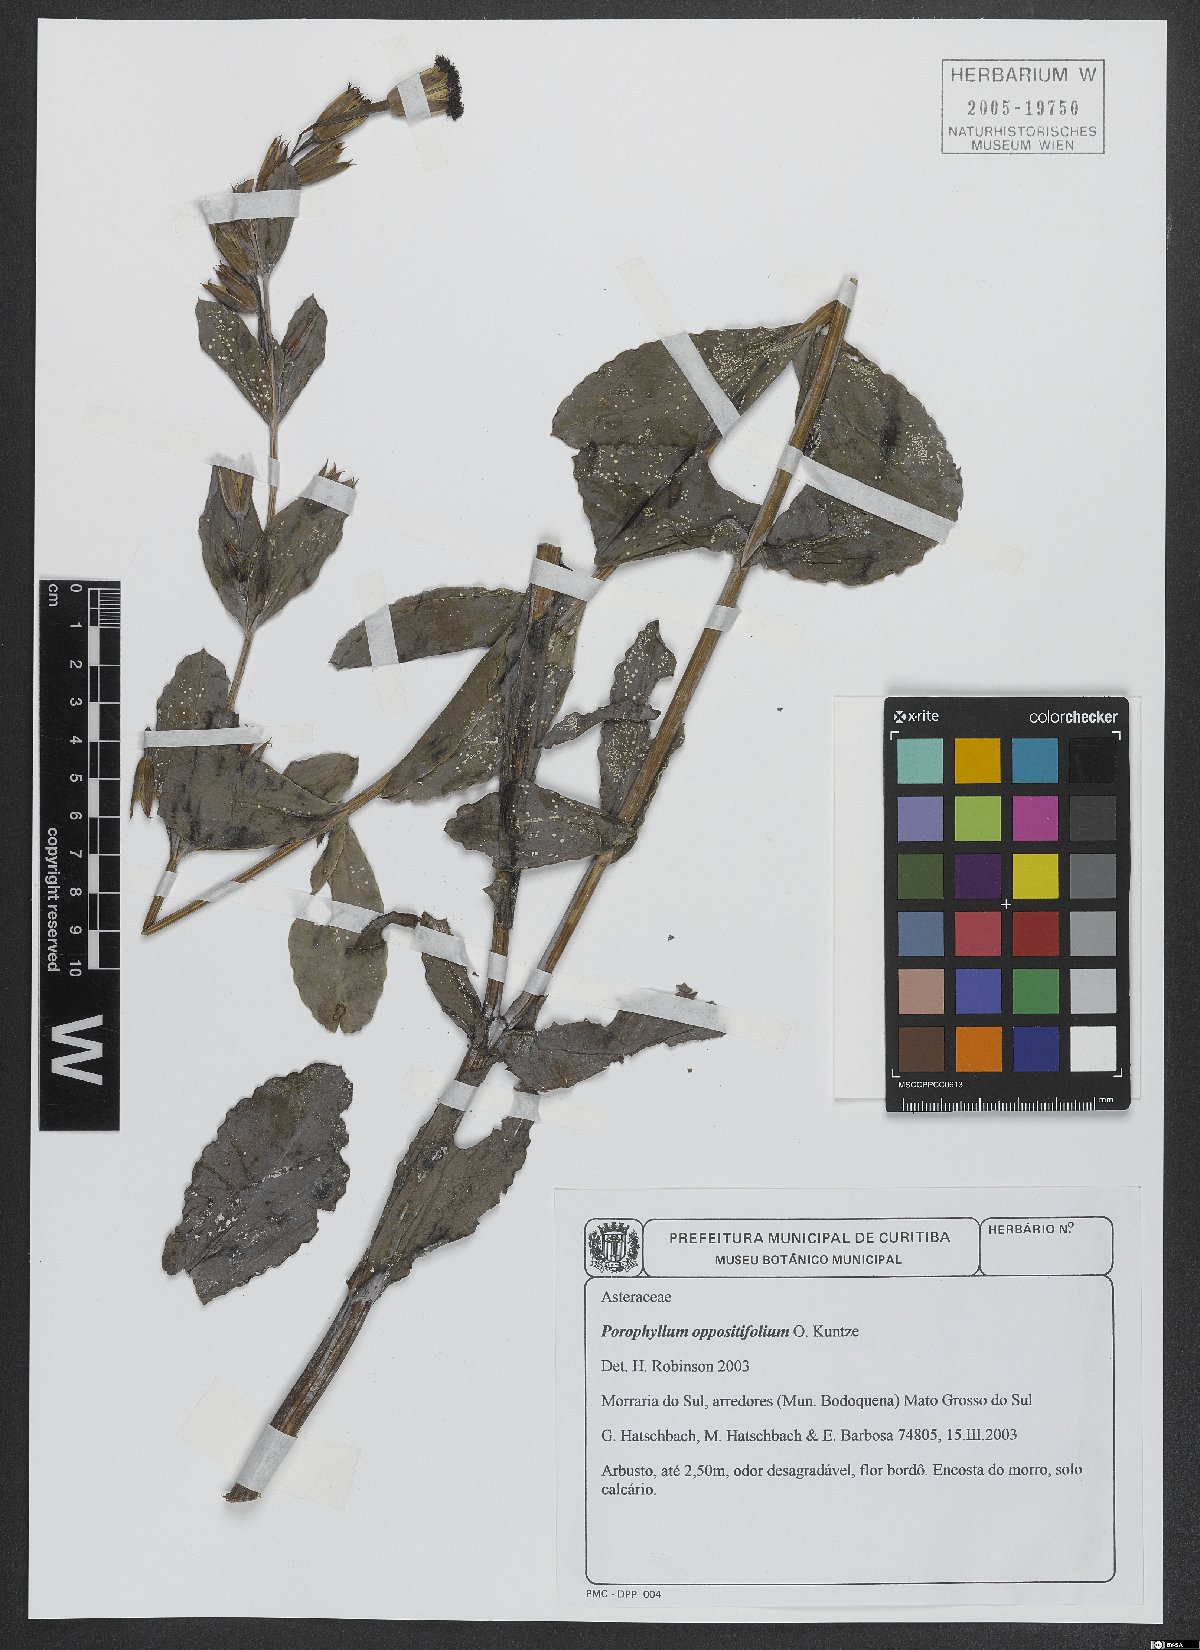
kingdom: Plantae
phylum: Tracheophyta
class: Magnoliopsida
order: Asterales
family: Asteraceae
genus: Porophyllum
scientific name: Porophyllum oppositifolium
